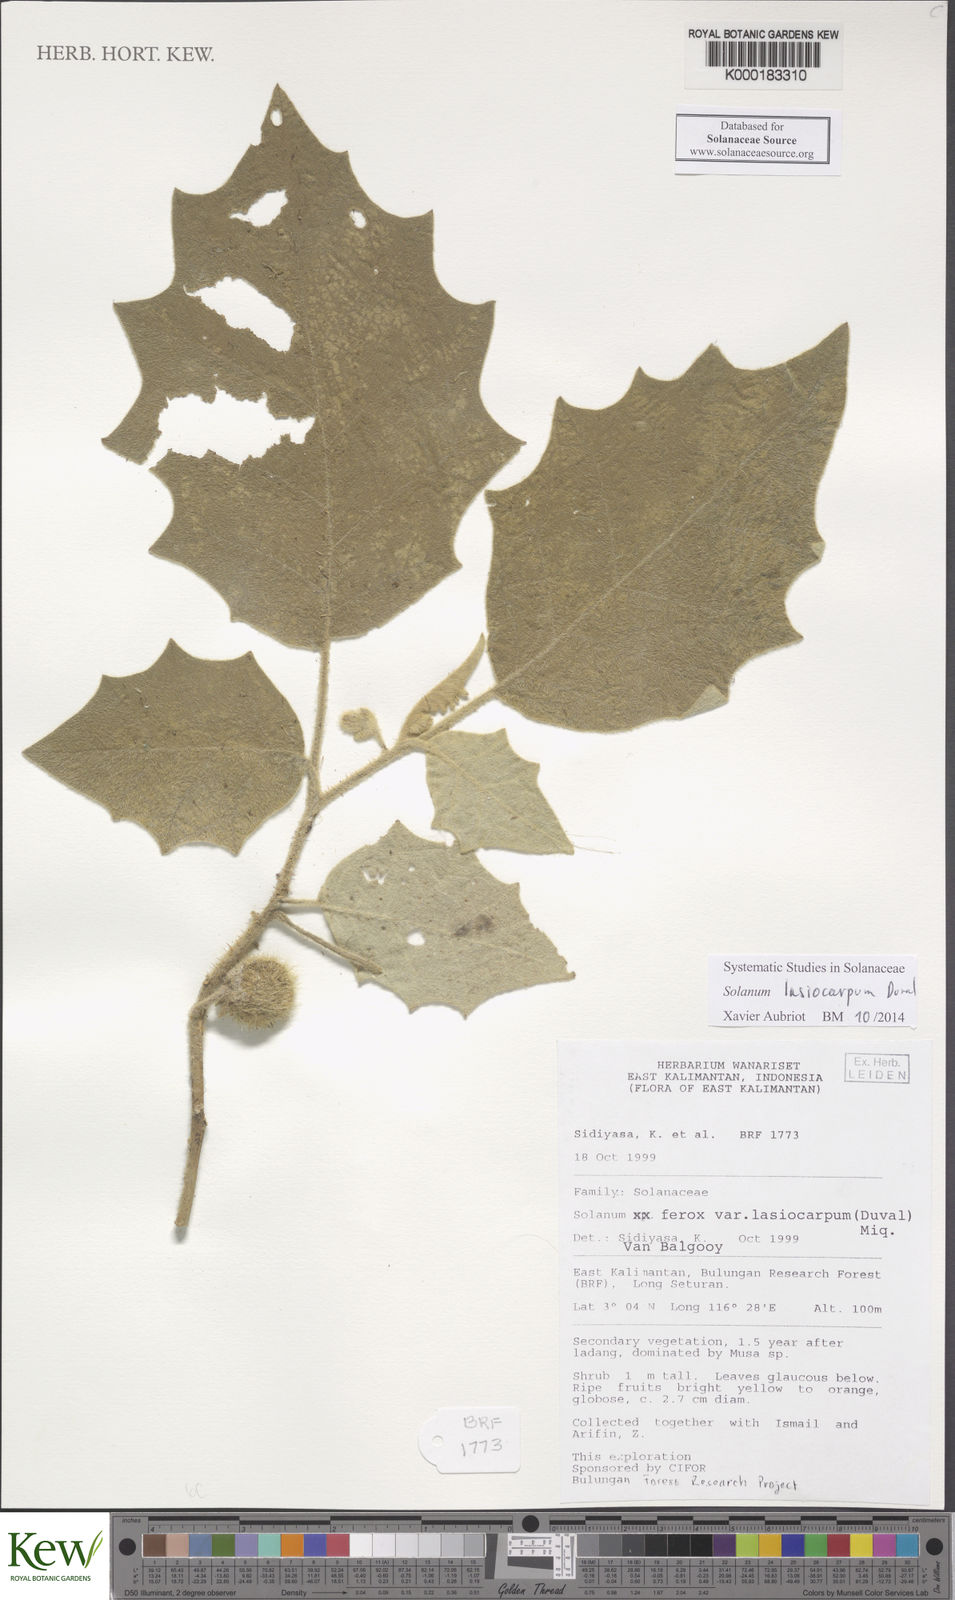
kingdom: Plantae
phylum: Tracheophyta
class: Magnoliopsida
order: Solanales
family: Solanaceae
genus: Solanum
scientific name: Solanum
